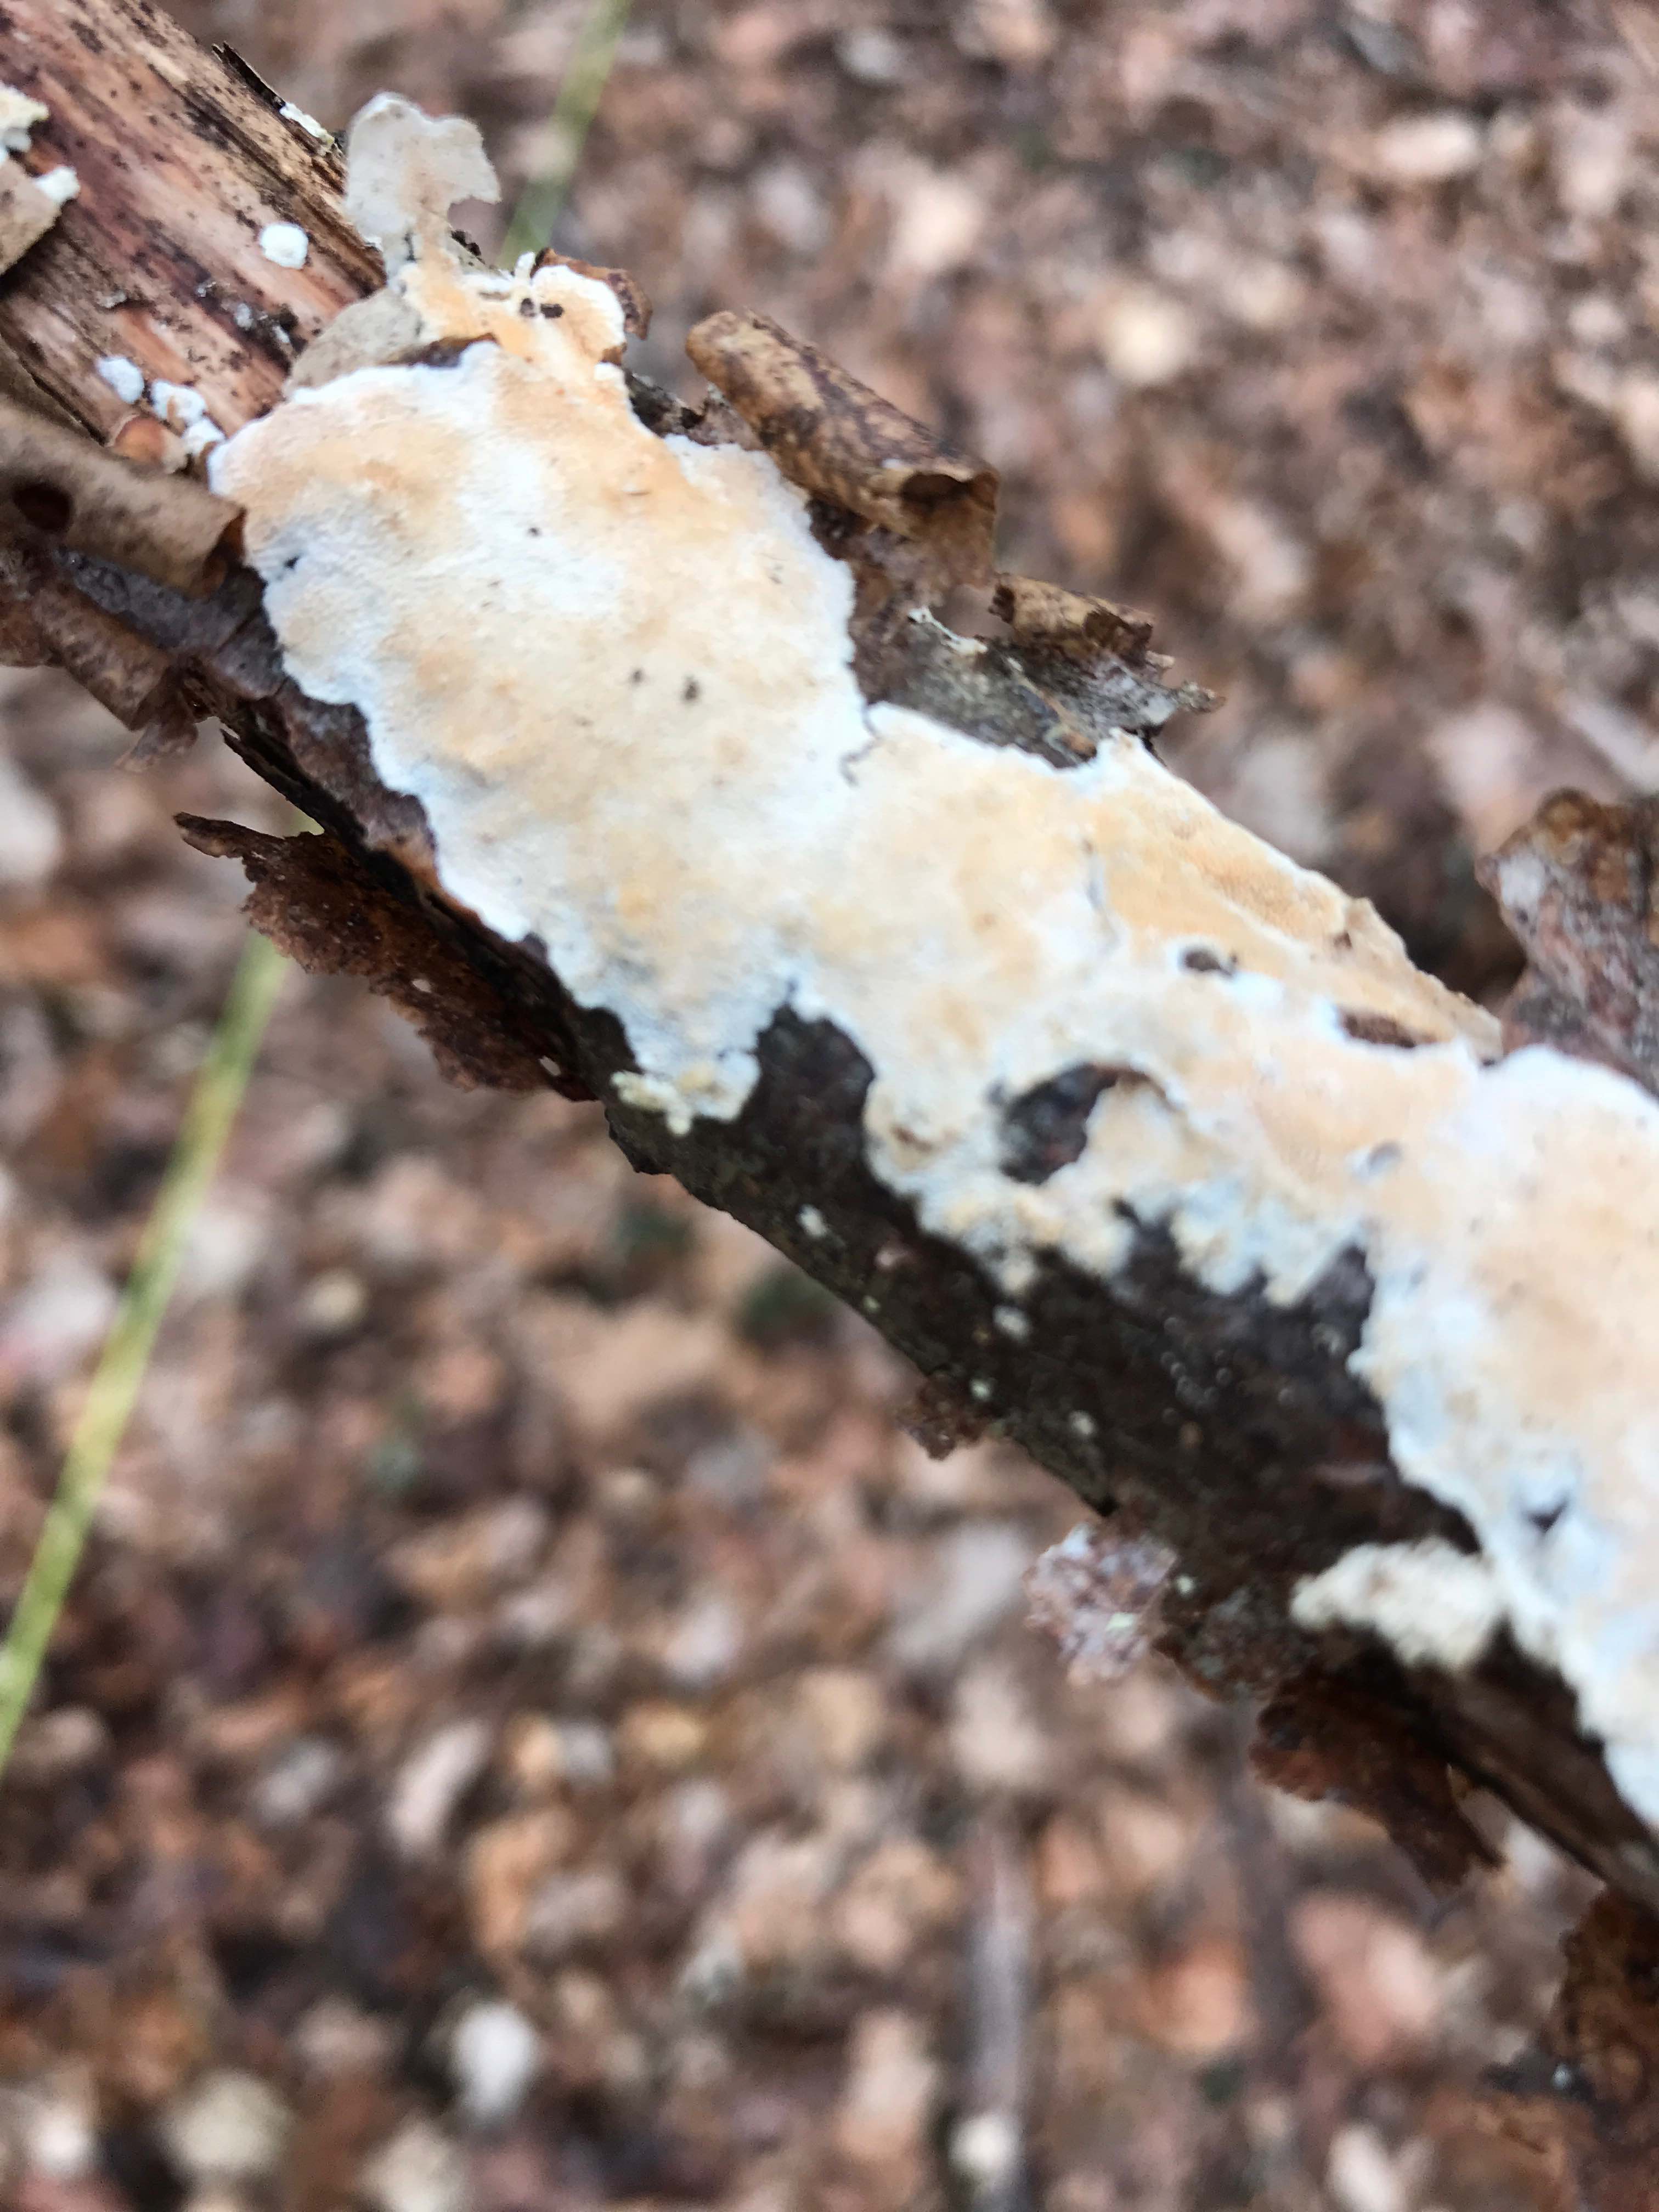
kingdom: Fungi
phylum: Basidiomycota
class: Agaricomycetes
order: Polyporales
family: Steccherinaceae
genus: Steccherinum
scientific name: Steccherinum ochraceum
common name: almindelig skønpig
